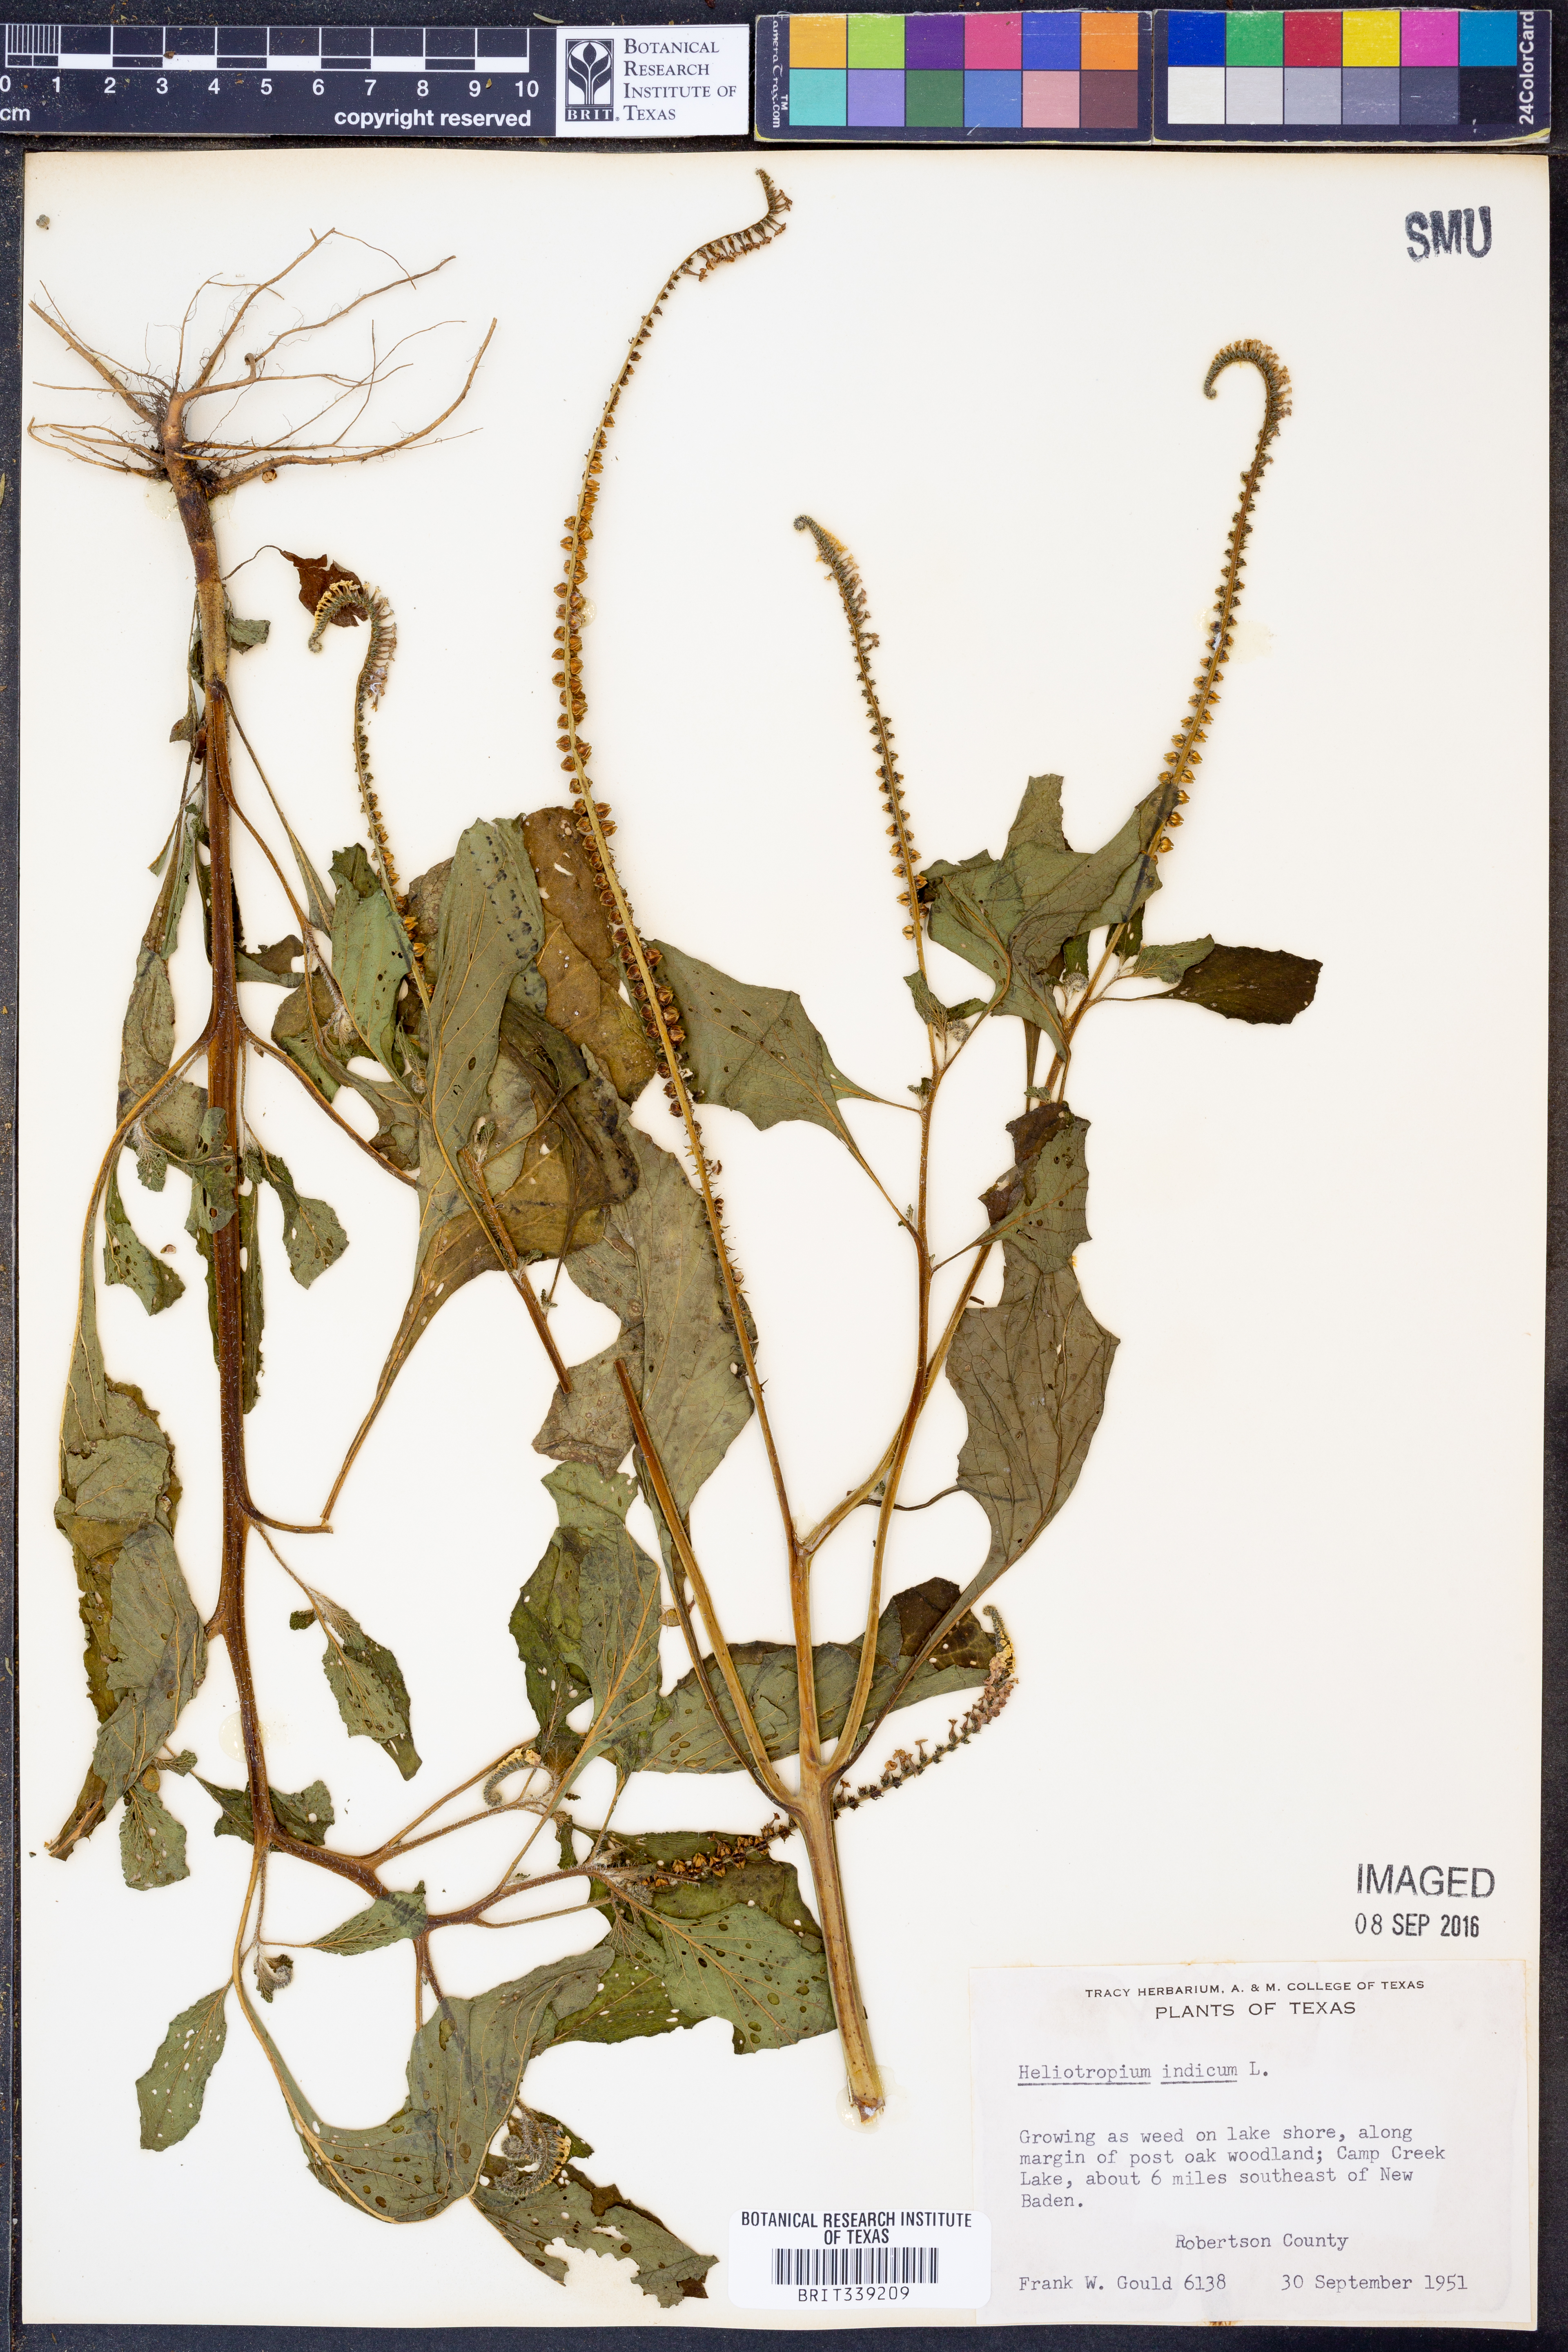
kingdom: Plantae
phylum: Tracheophyta
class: Magnoliopsida
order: Boraginales
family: Heliotropiaceae
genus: Heliotropium
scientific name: Heliotropium indicum
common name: Indian heliotrope
